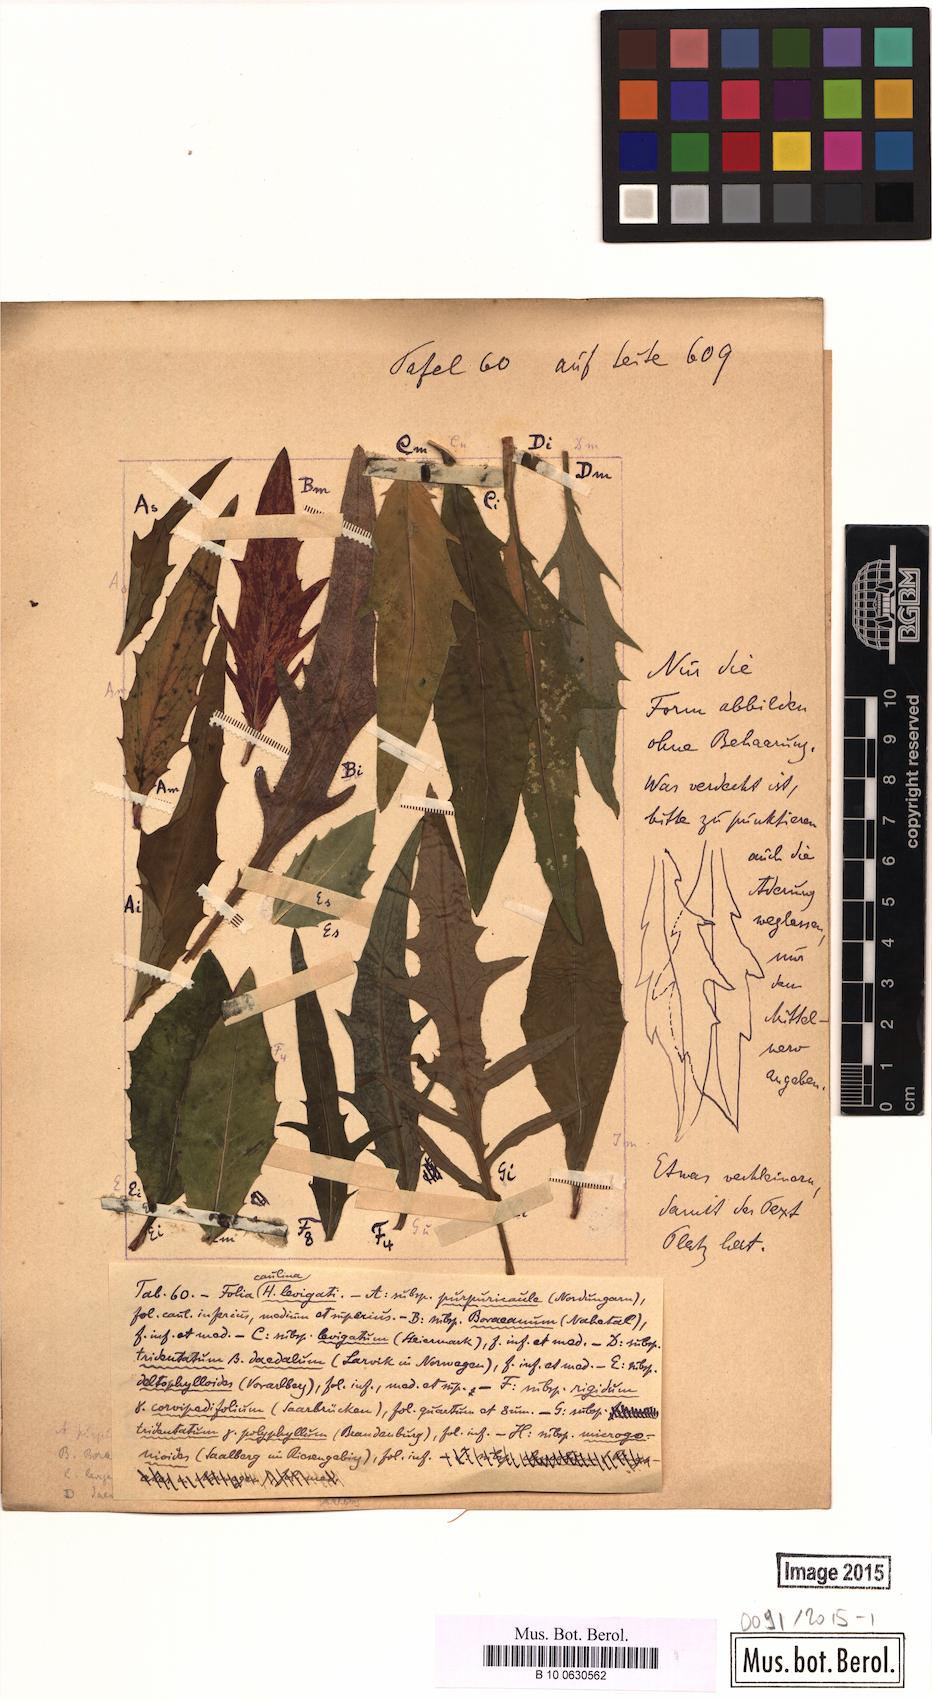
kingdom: Plantae
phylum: Tracheophyta
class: Magnoliopsida
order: Asterales
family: Asteraceae
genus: Hieracium
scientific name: Hieracium
